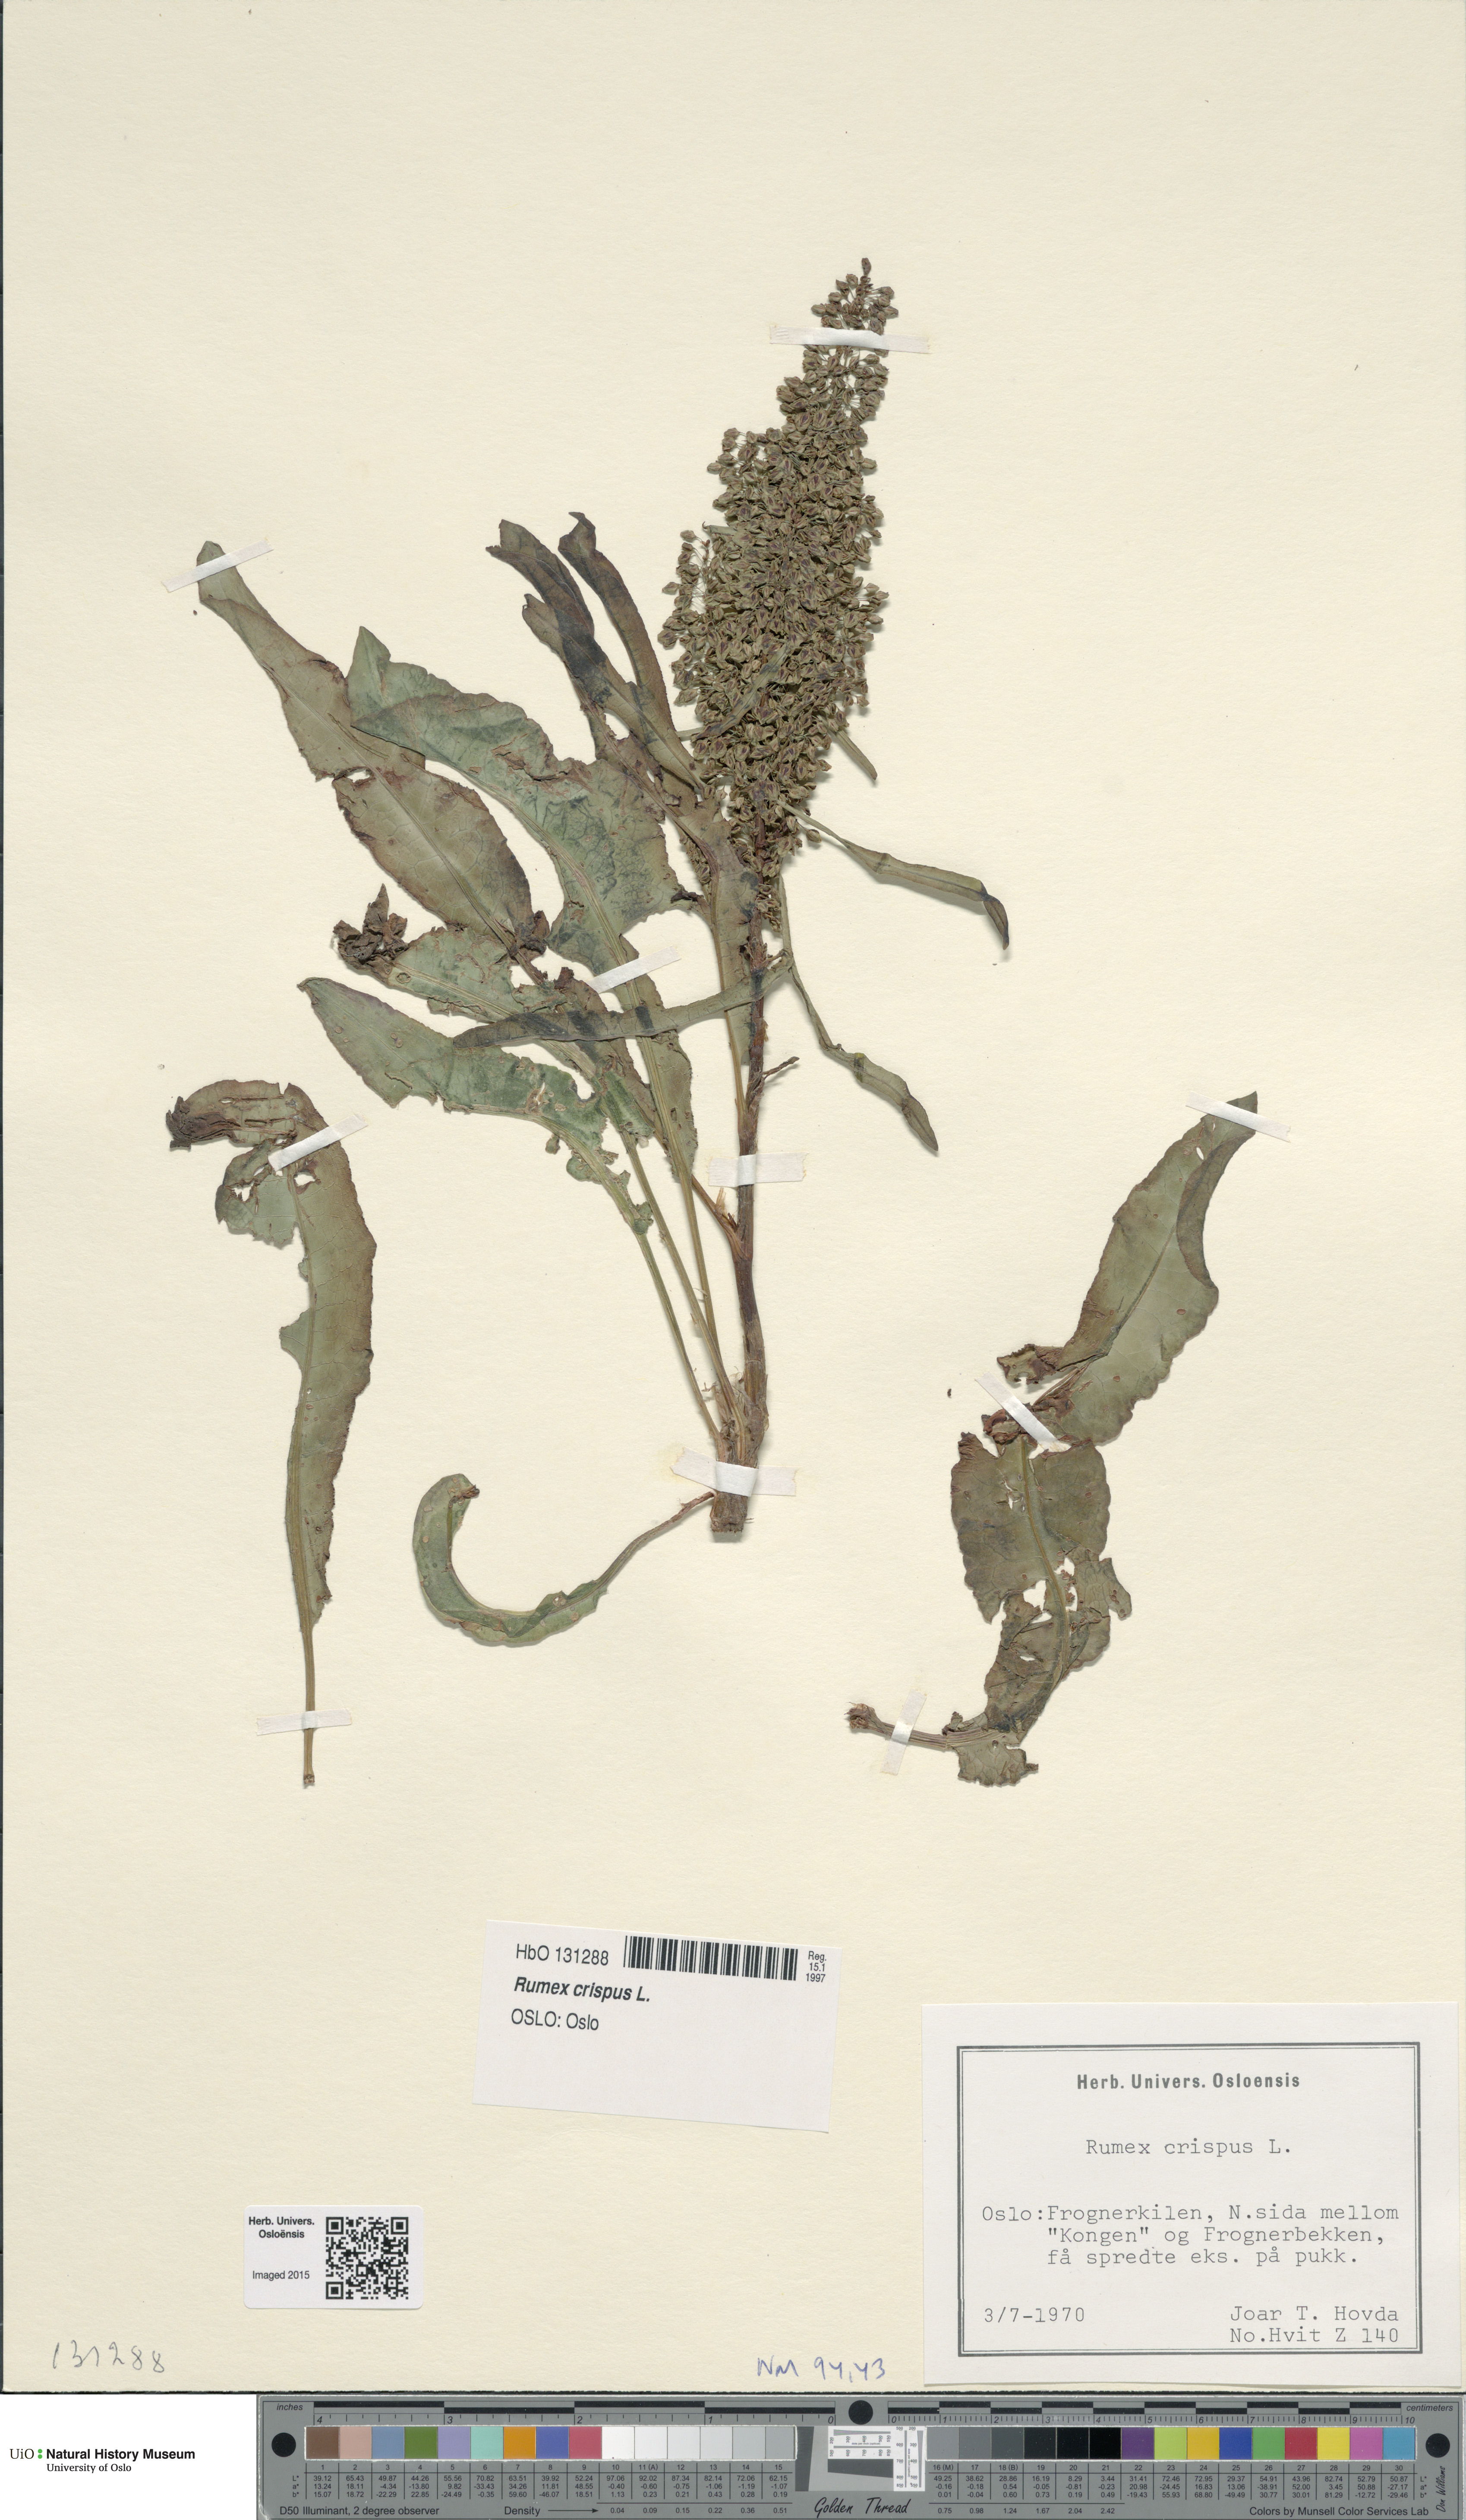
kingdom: Plantae
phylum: Tracheophyta
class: Magnoliopsida
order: Caryophyllales
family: Polygonaceae
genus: Rumex
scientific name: Rumex crispus
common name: Curled dock
